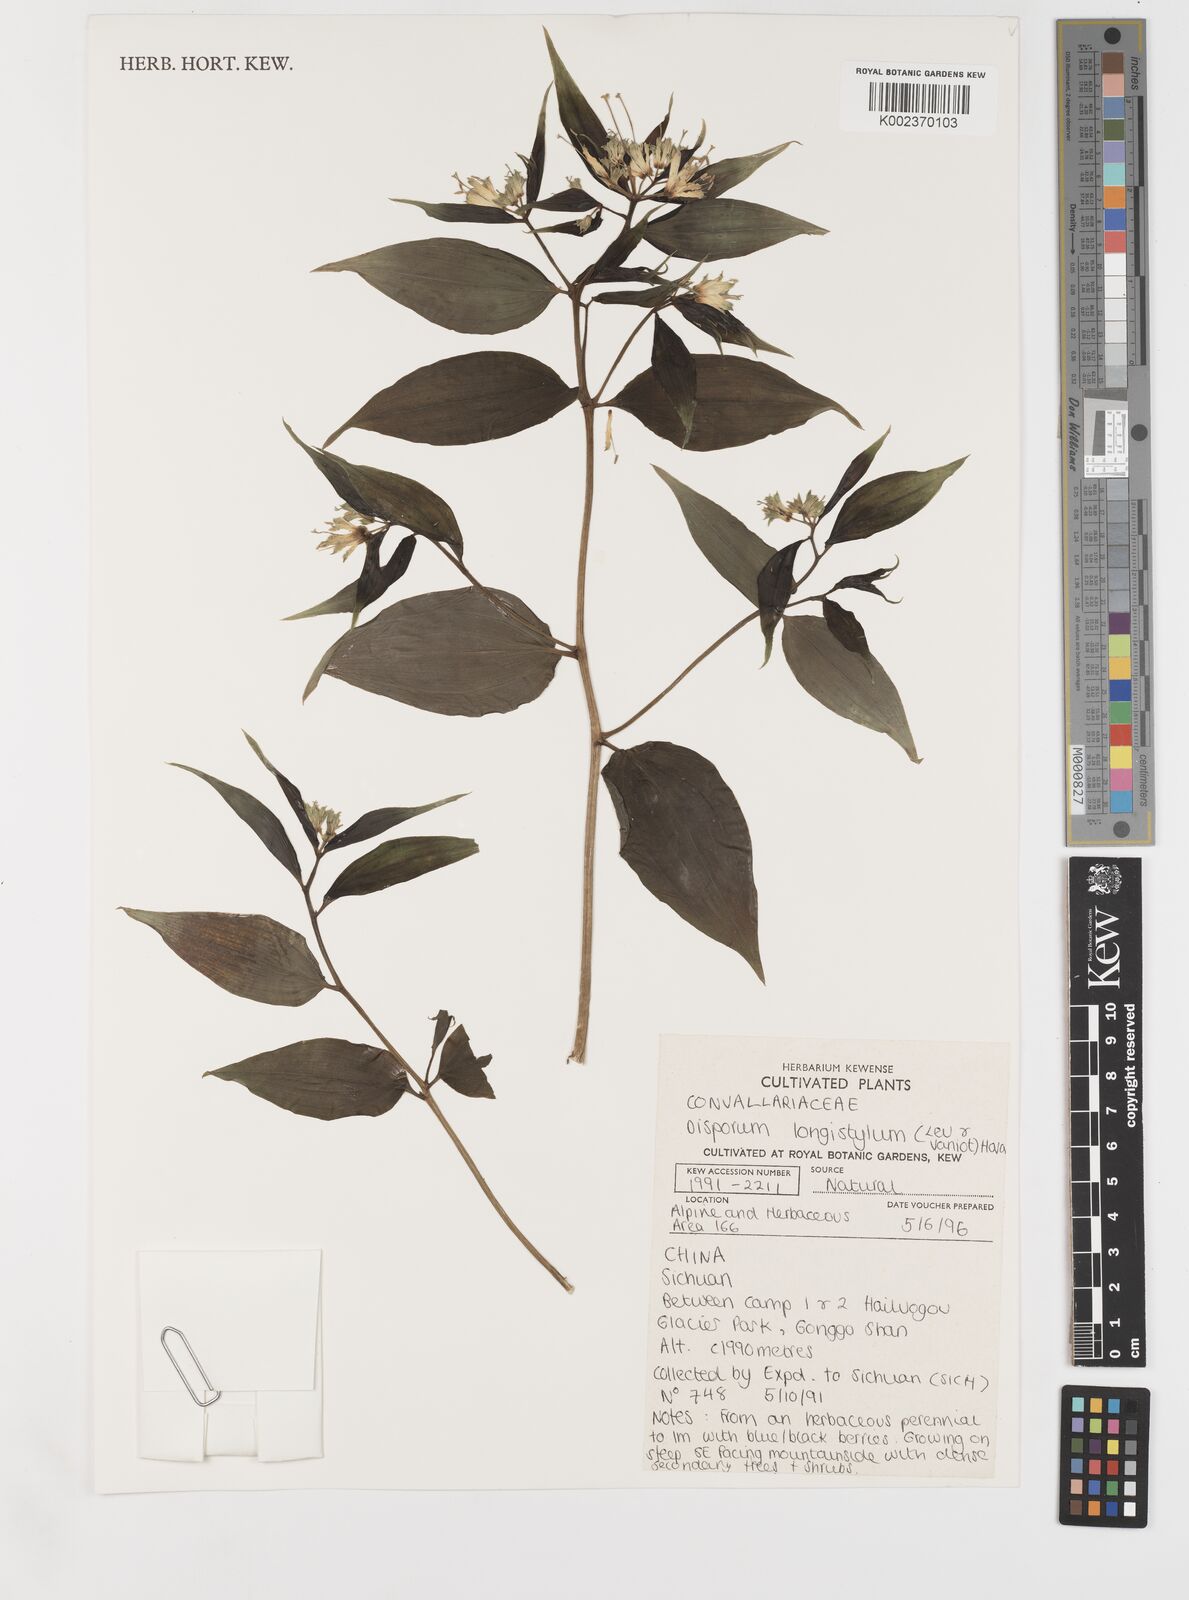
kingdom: Plantae
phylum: Tracheophyta
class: Liliopsida
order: Liliales
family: Colchicaceae
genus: Disporum
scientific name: Disporum longistylum
